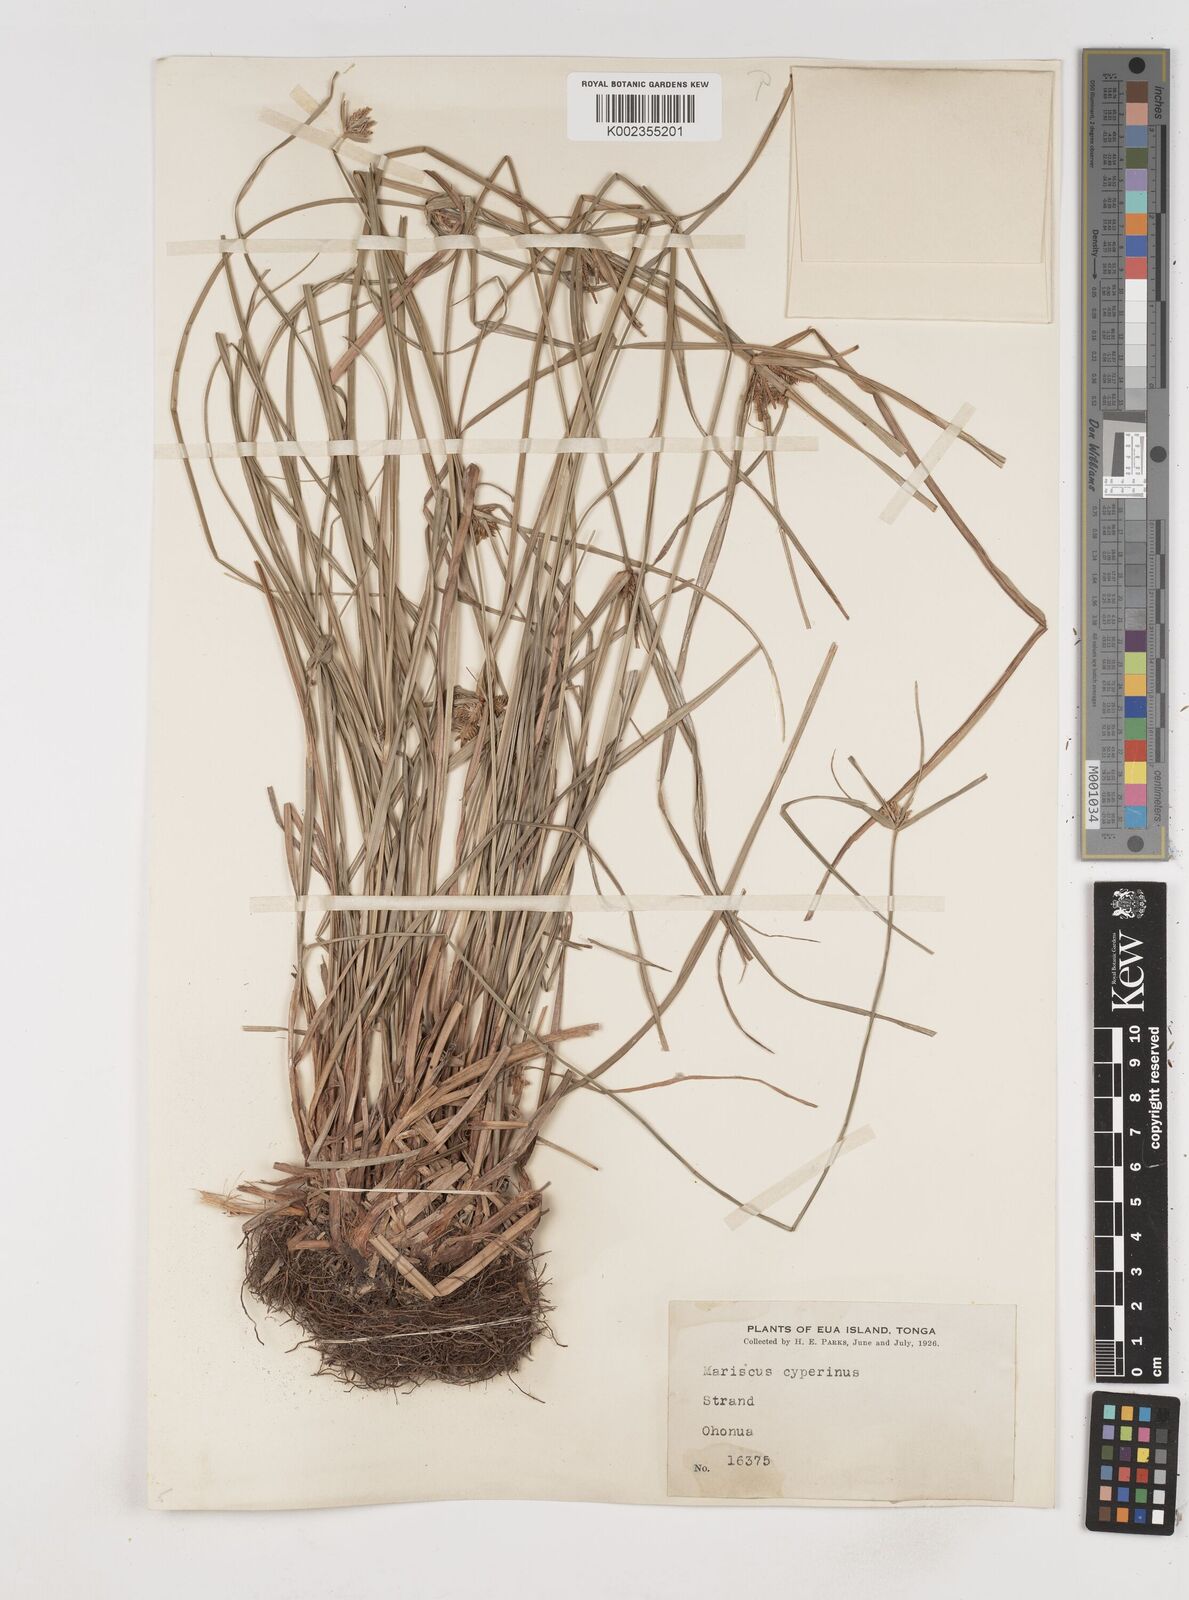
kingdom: Plantae
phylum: Tracheophyta
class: Liliopsida
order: Poales
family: Cyperaceae
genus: Cyperus
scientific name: Cyperus cyperinus
